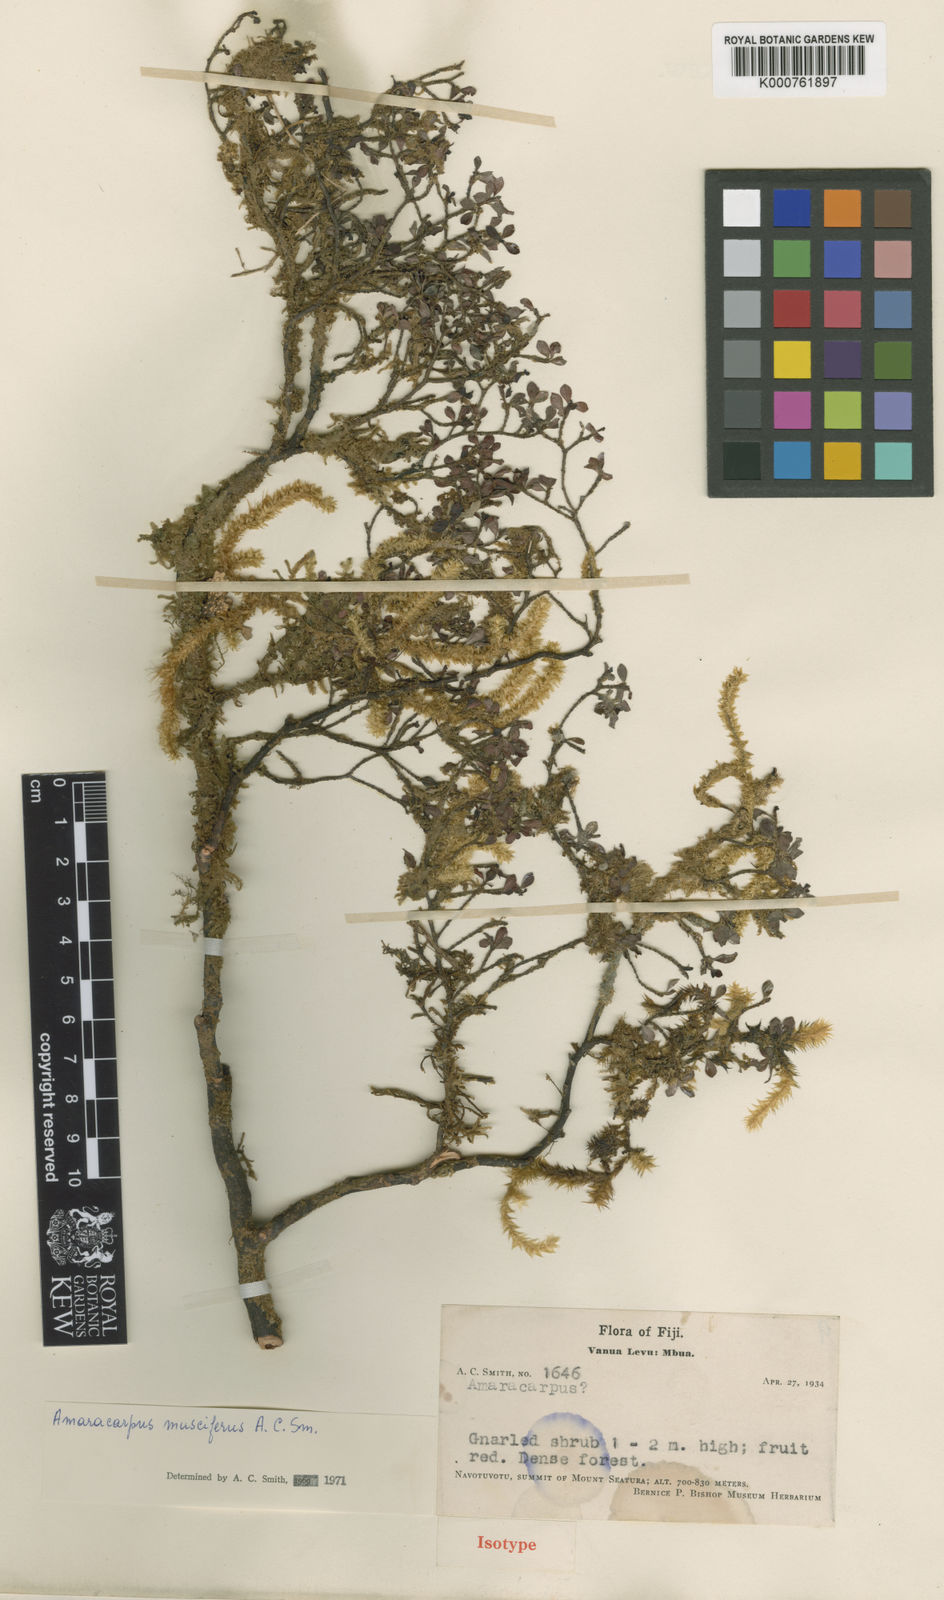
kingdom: Plantae
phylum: Tracheophyta
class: Magnoliopsida
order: Gentianales
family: Rubiaceae
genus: Amaracarpus
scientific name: Amaracarpus muscifer
